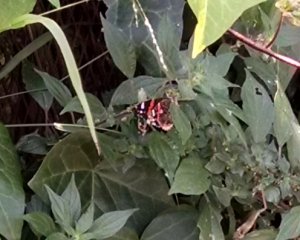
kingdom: Animalia
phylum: Arthropoda
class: Insecta
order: Lepidoptera
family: Nymphalidae
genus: Vanessa
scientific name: Vanessa atalanta
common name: Red Admiral
